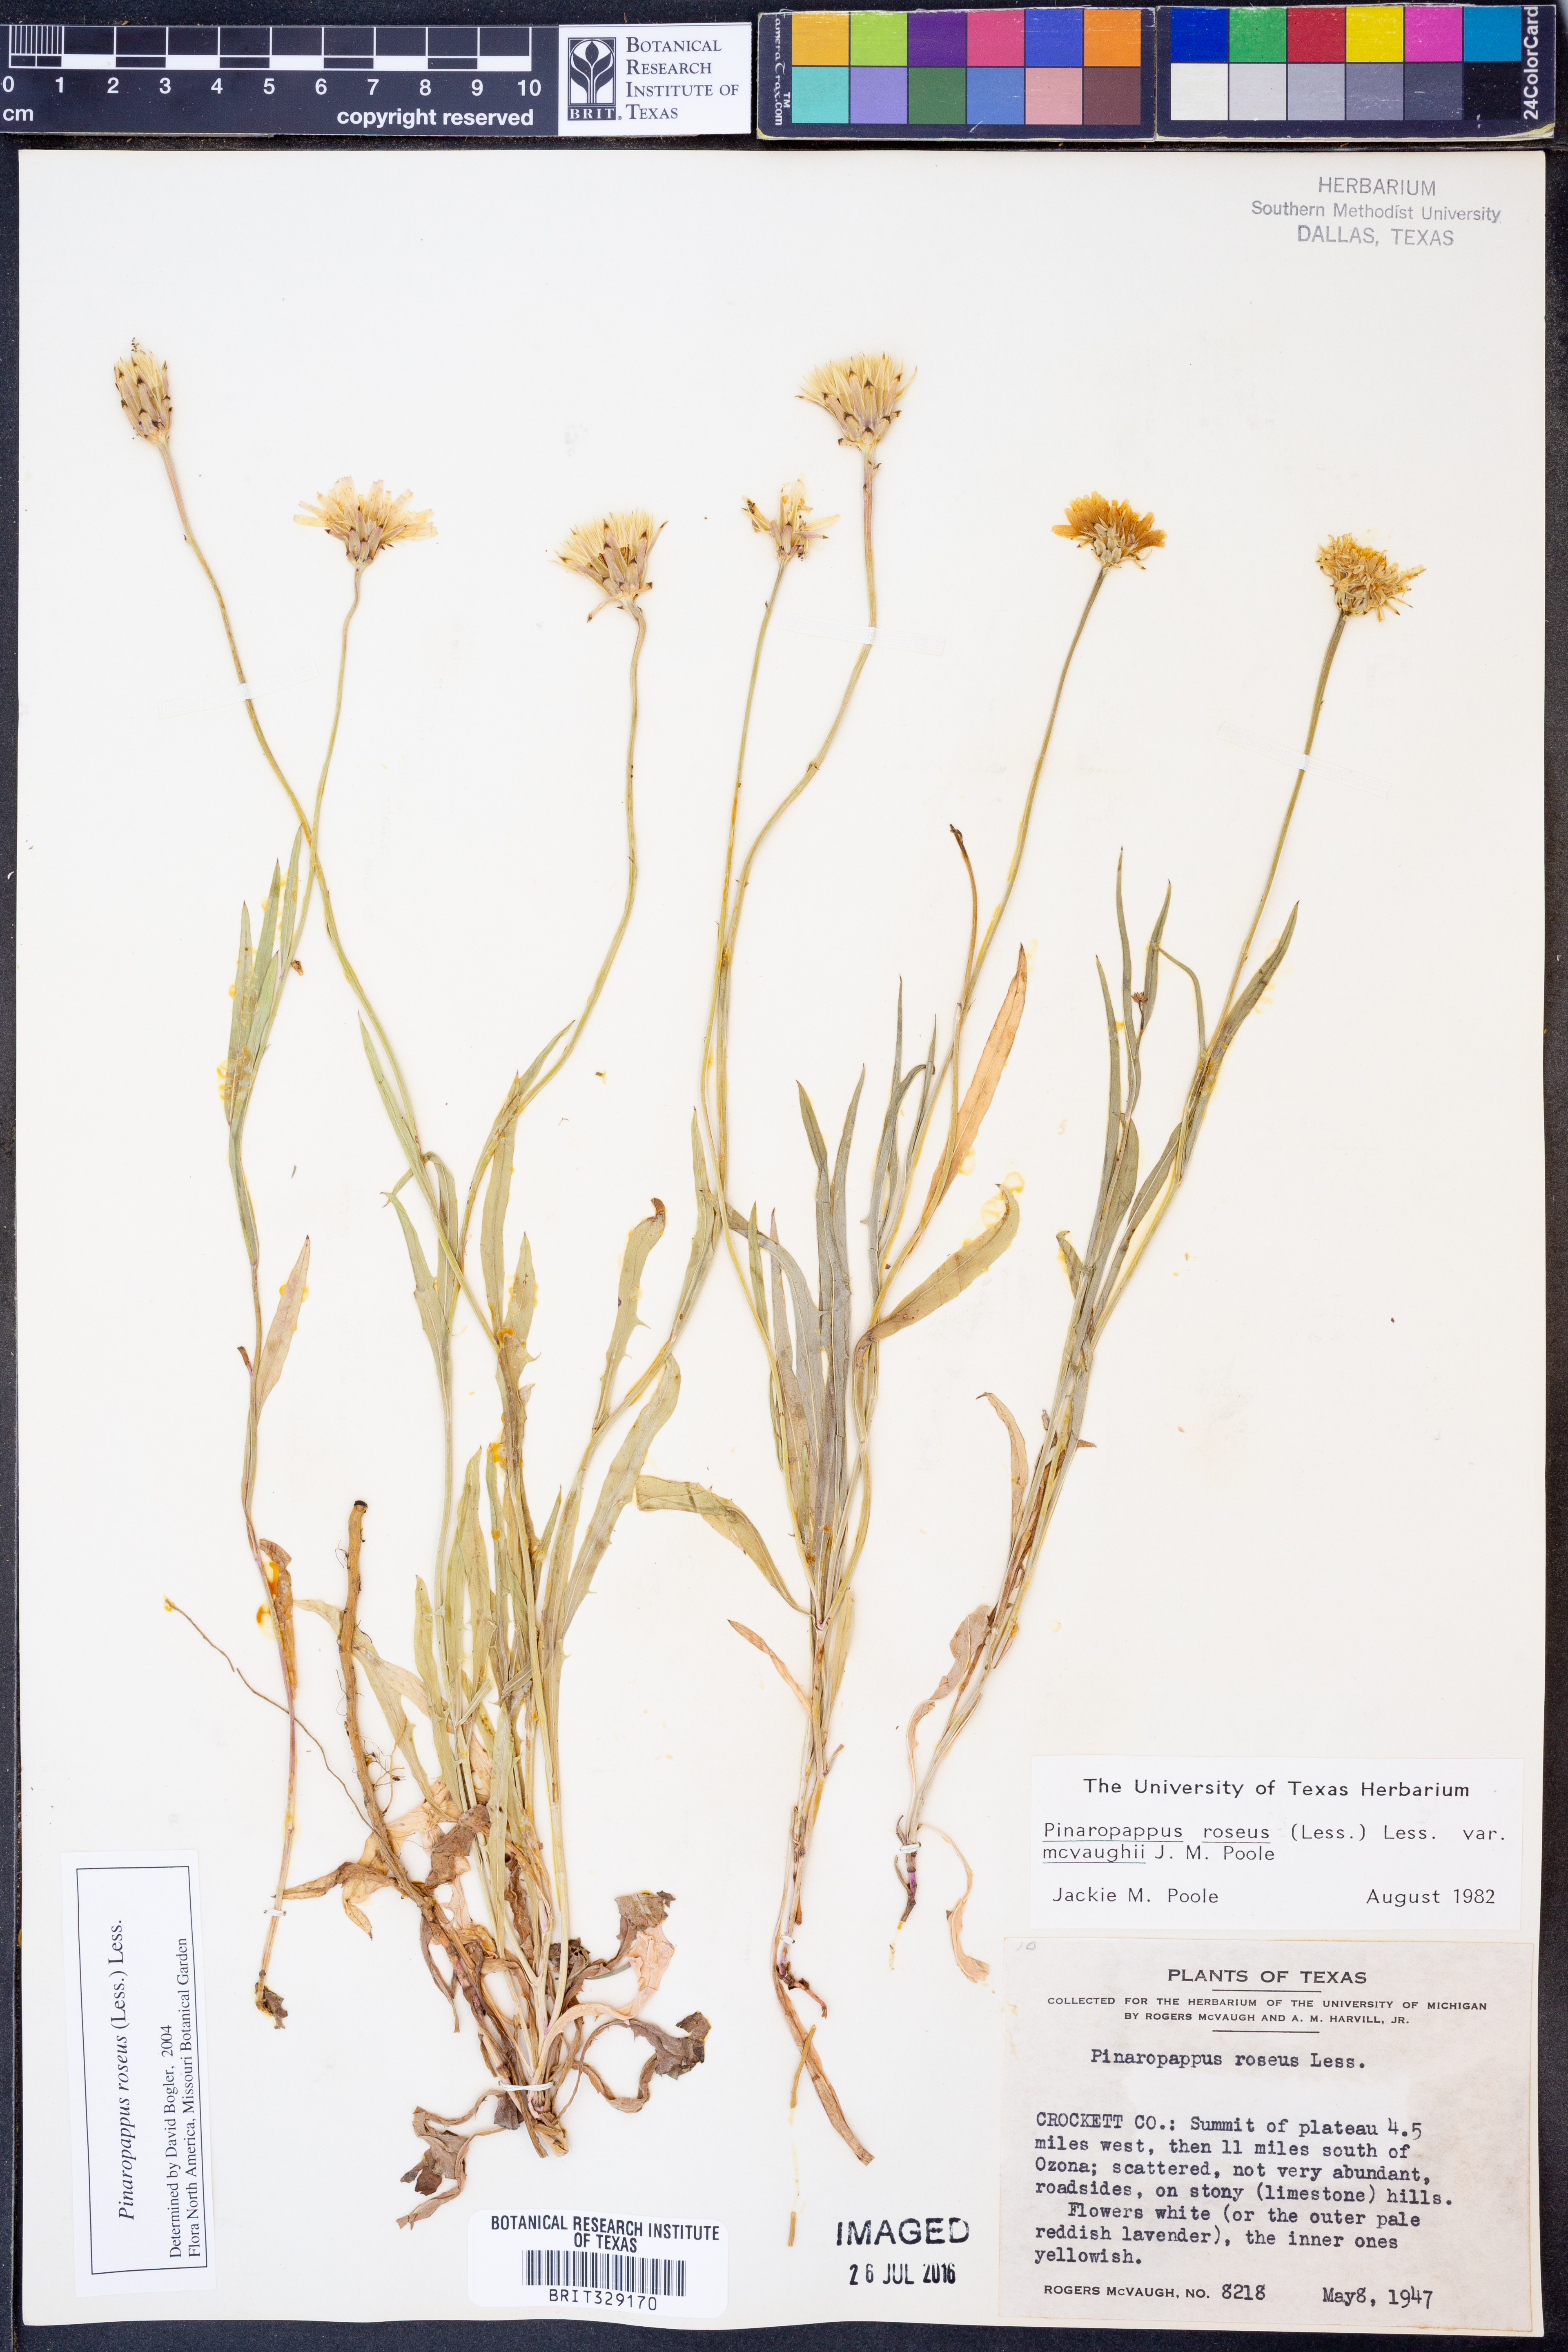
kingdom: Plantae
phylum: Tracheophyta
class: Magnoliopsida
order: Asterales
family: Asteraceae
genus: Pinaropappus
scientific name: Pinaropappus roseus
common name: Rock-lettuce
